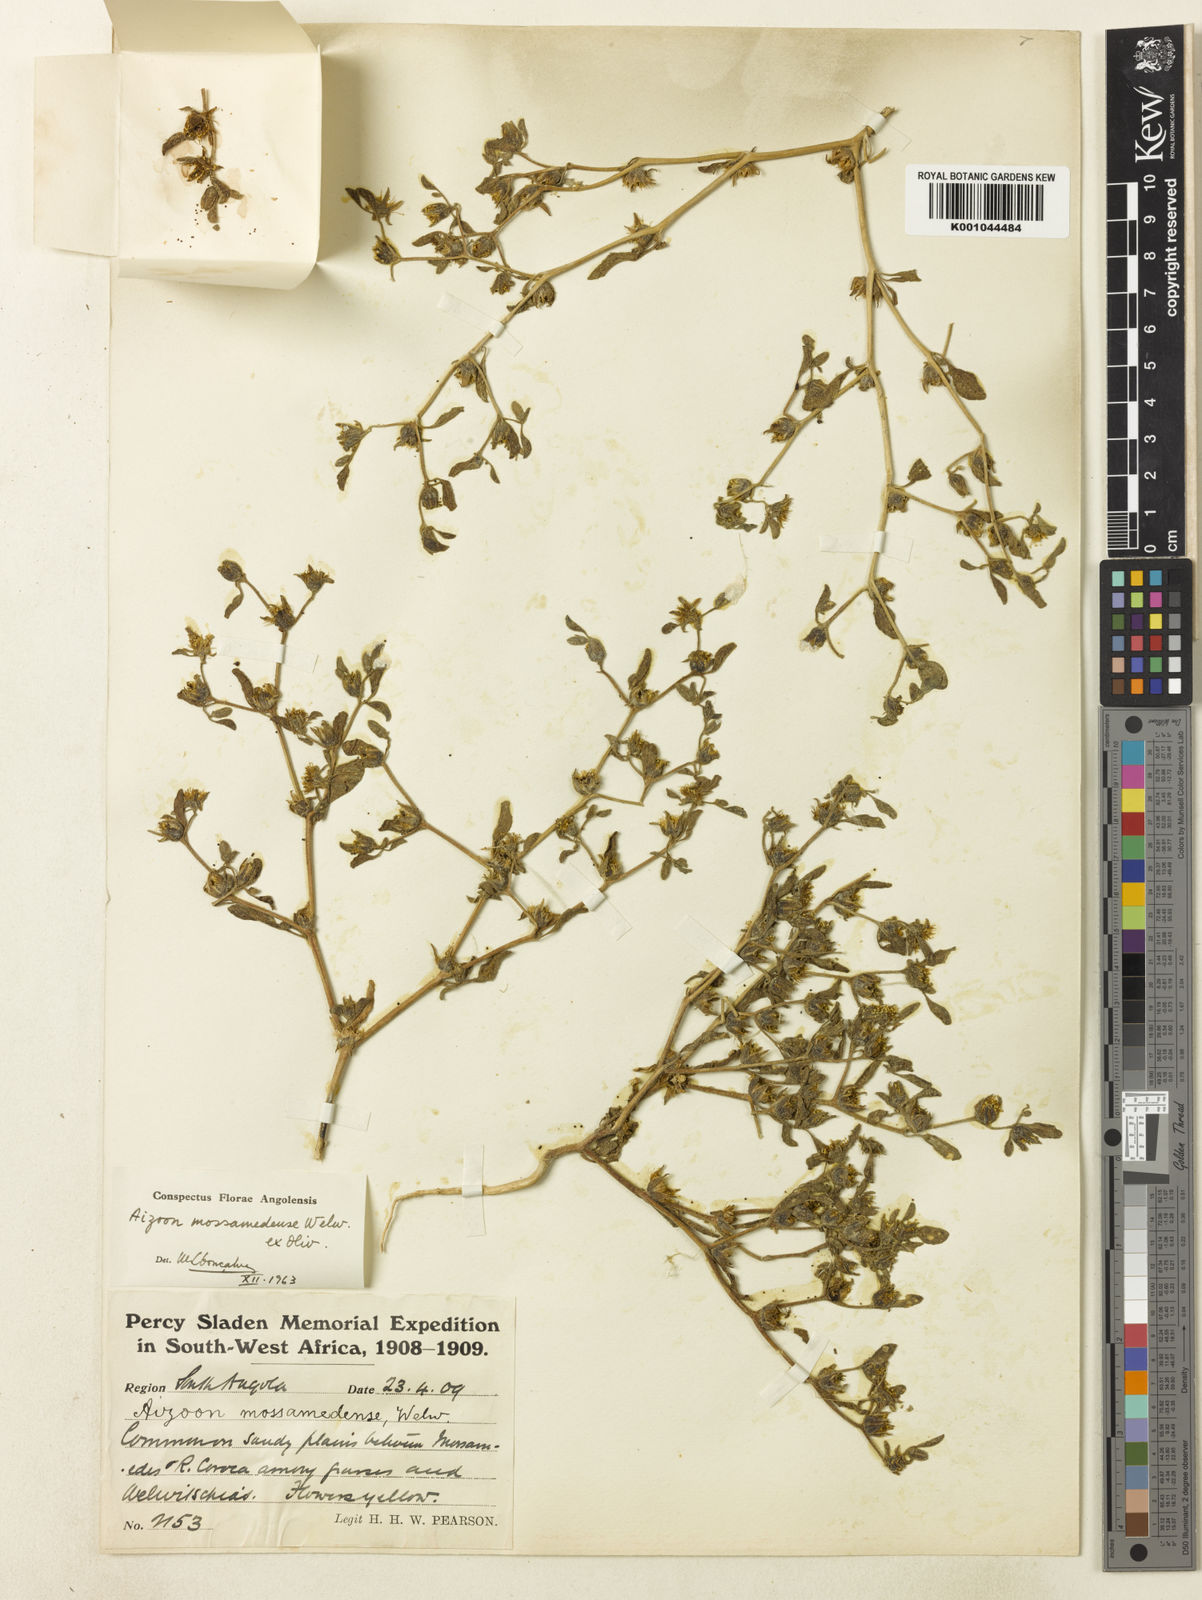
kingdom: Plantae
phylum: Tracheophyta
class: Magnoliopsida
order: Caryophyllales
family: Aizoaceae
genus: Aizoanthemum
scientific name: Aizoanthemum mossamedense
